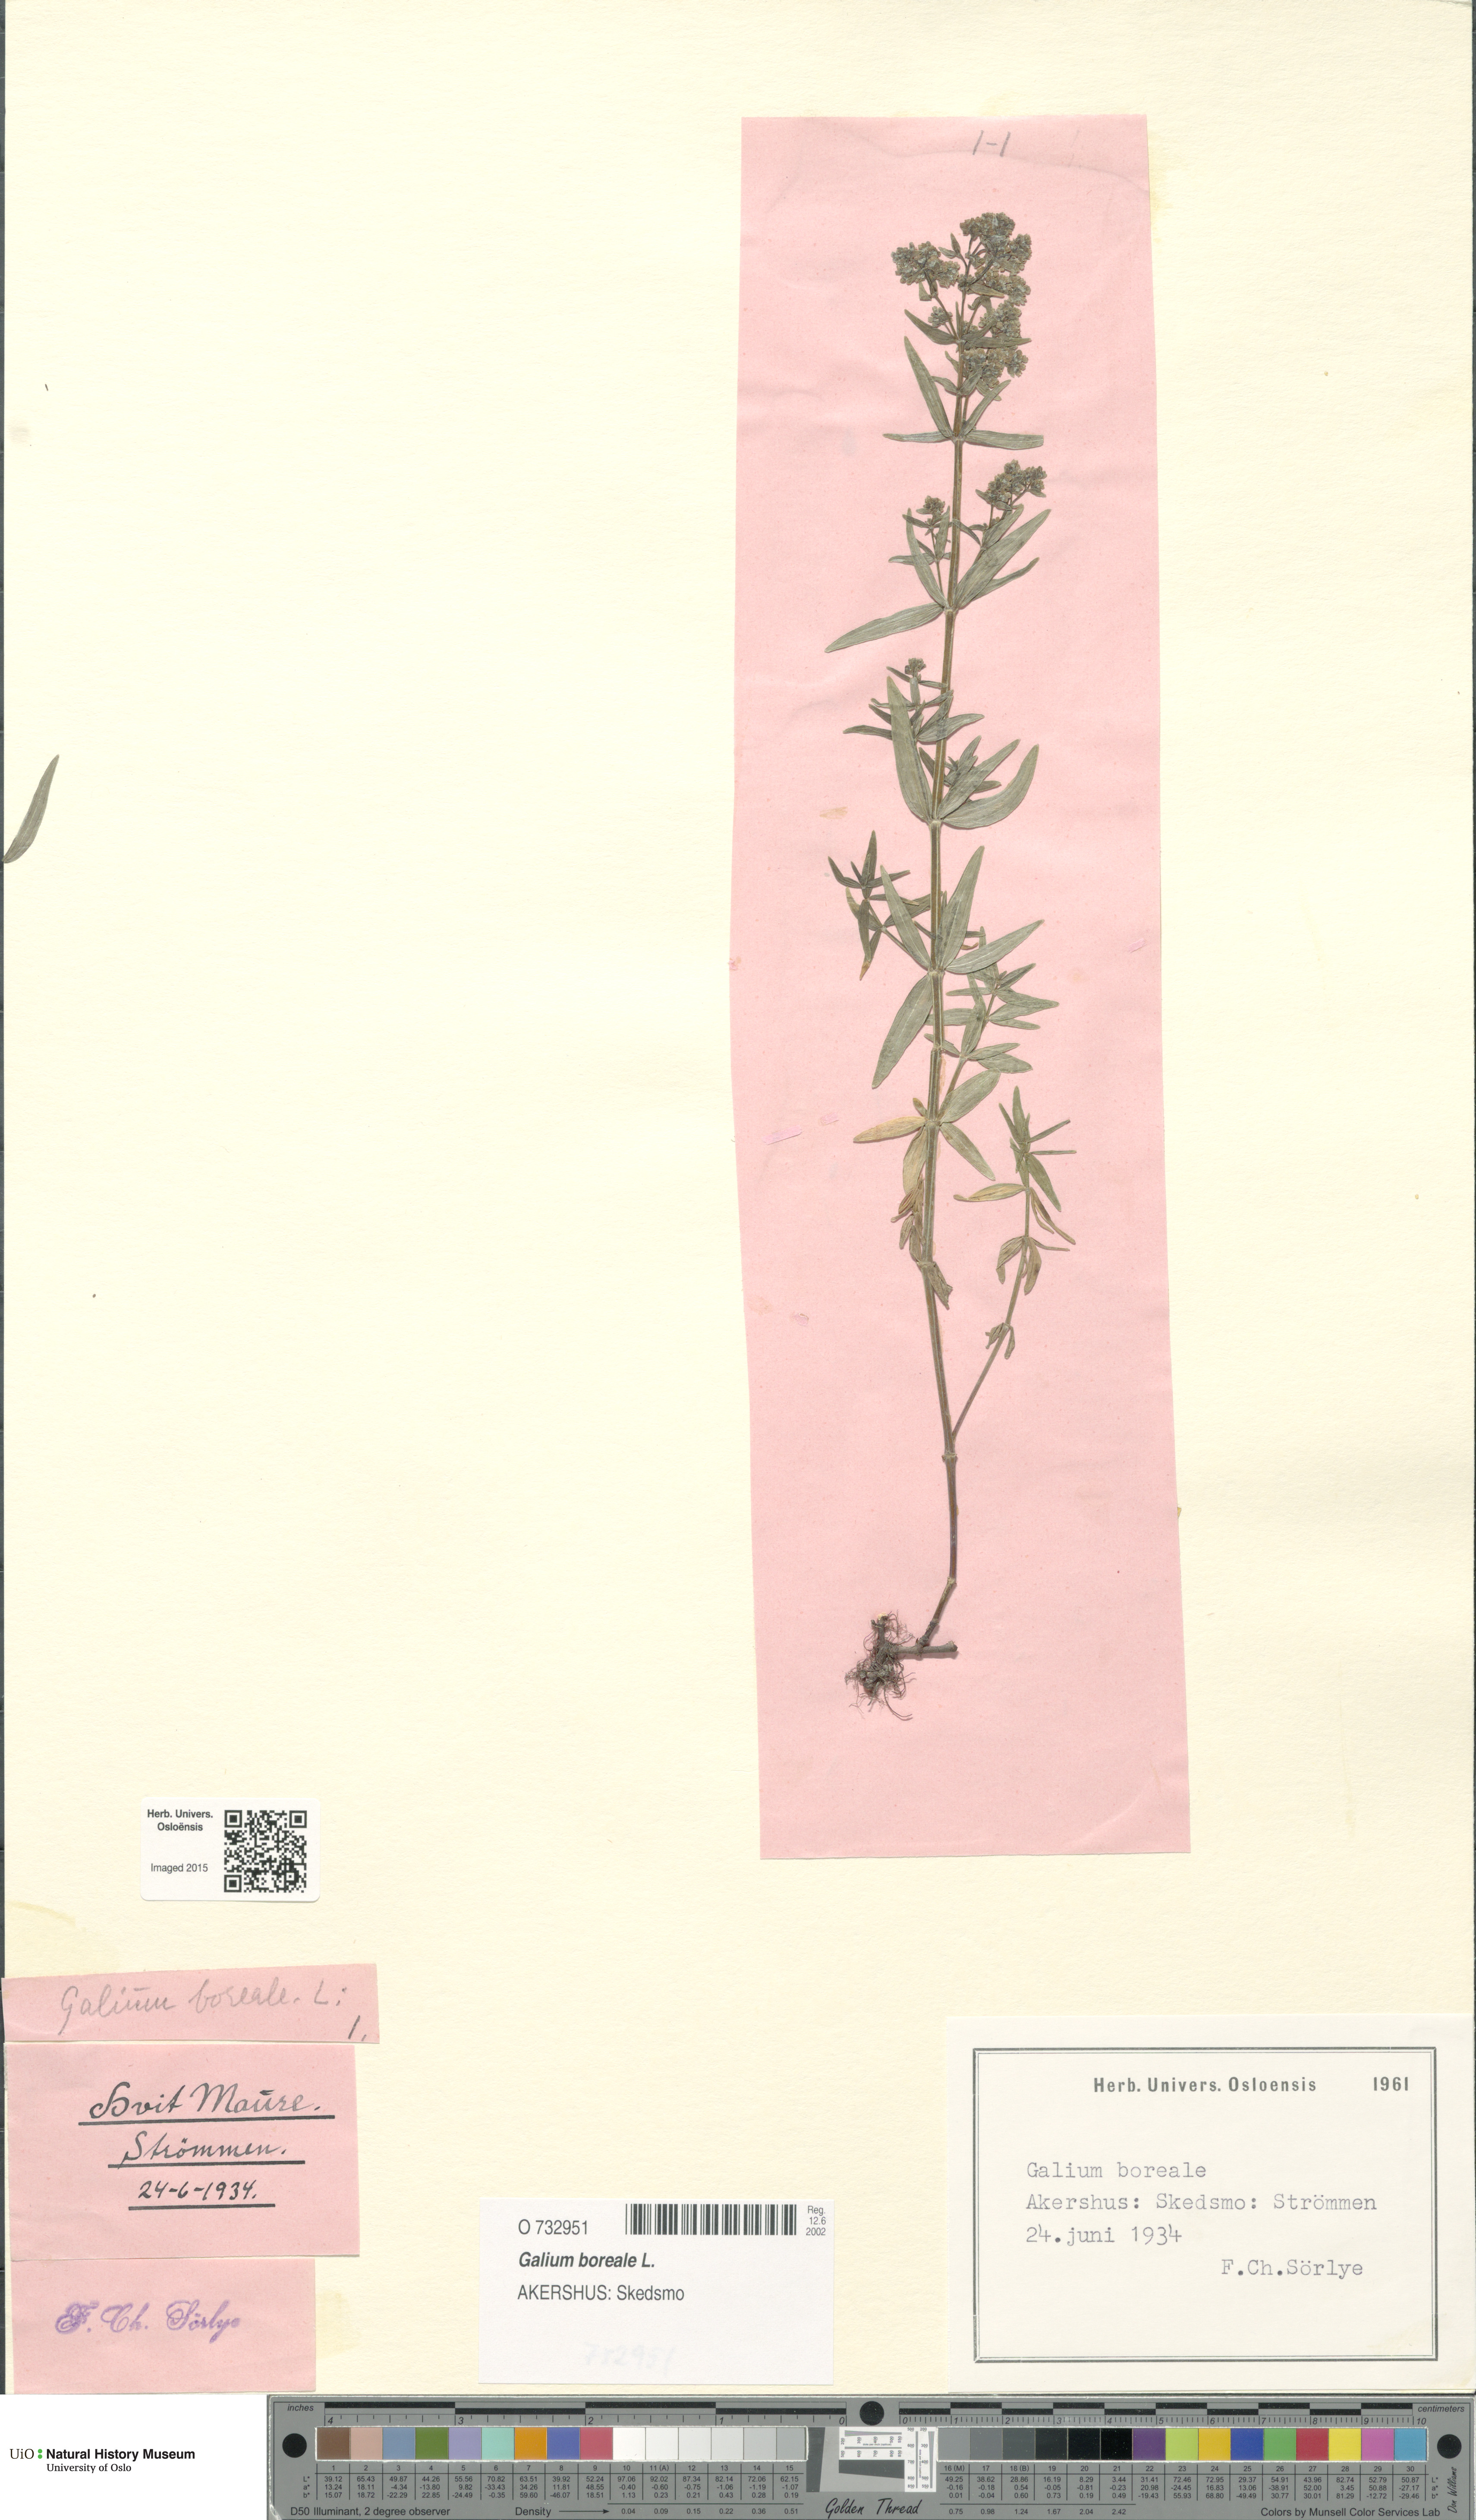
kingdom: Plantae
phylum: Tracheophyta
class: Magnoliopsida
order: Gentianales
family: Rubiaceae
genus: Galium
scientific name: Galium boreale
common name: Northern bedstraw
